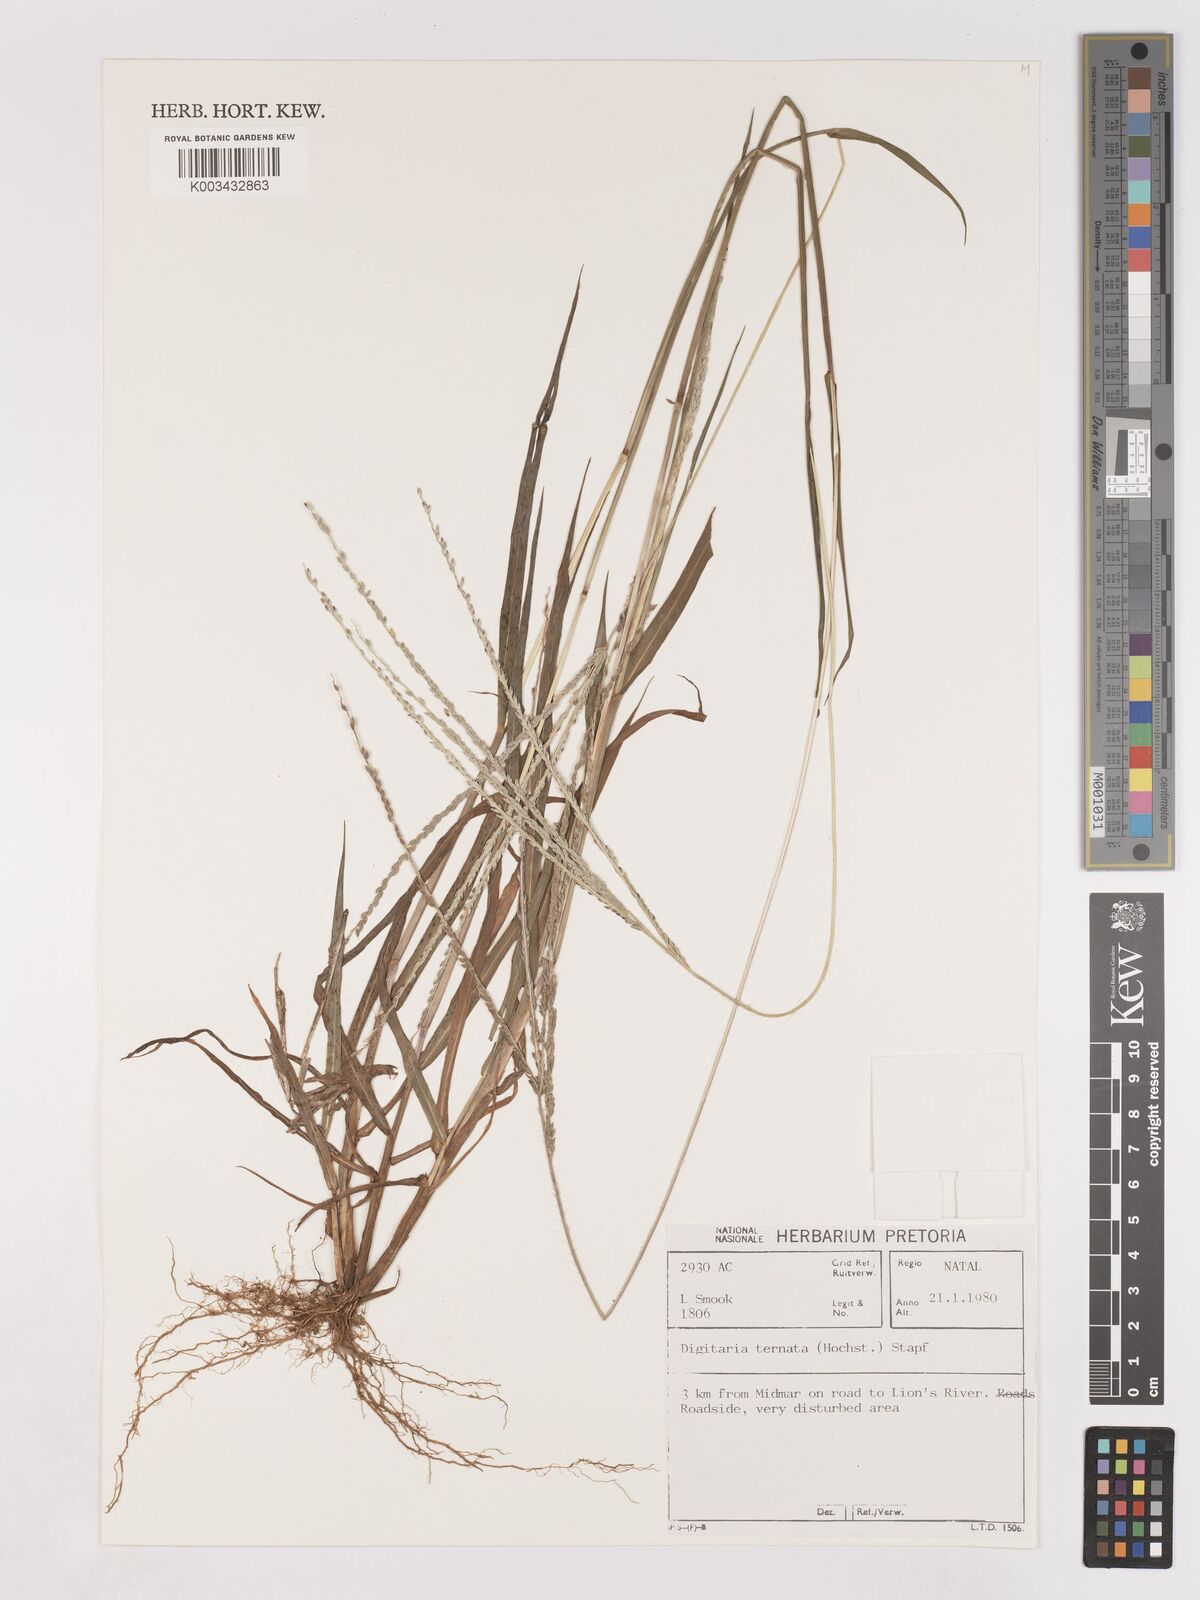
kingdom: Plantae
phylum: Tracheophyta
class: Liliopsida
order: Poales
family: Poaceae
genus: Digitaria
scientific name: Digitaria ternata
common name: Blackseed crabgrass
